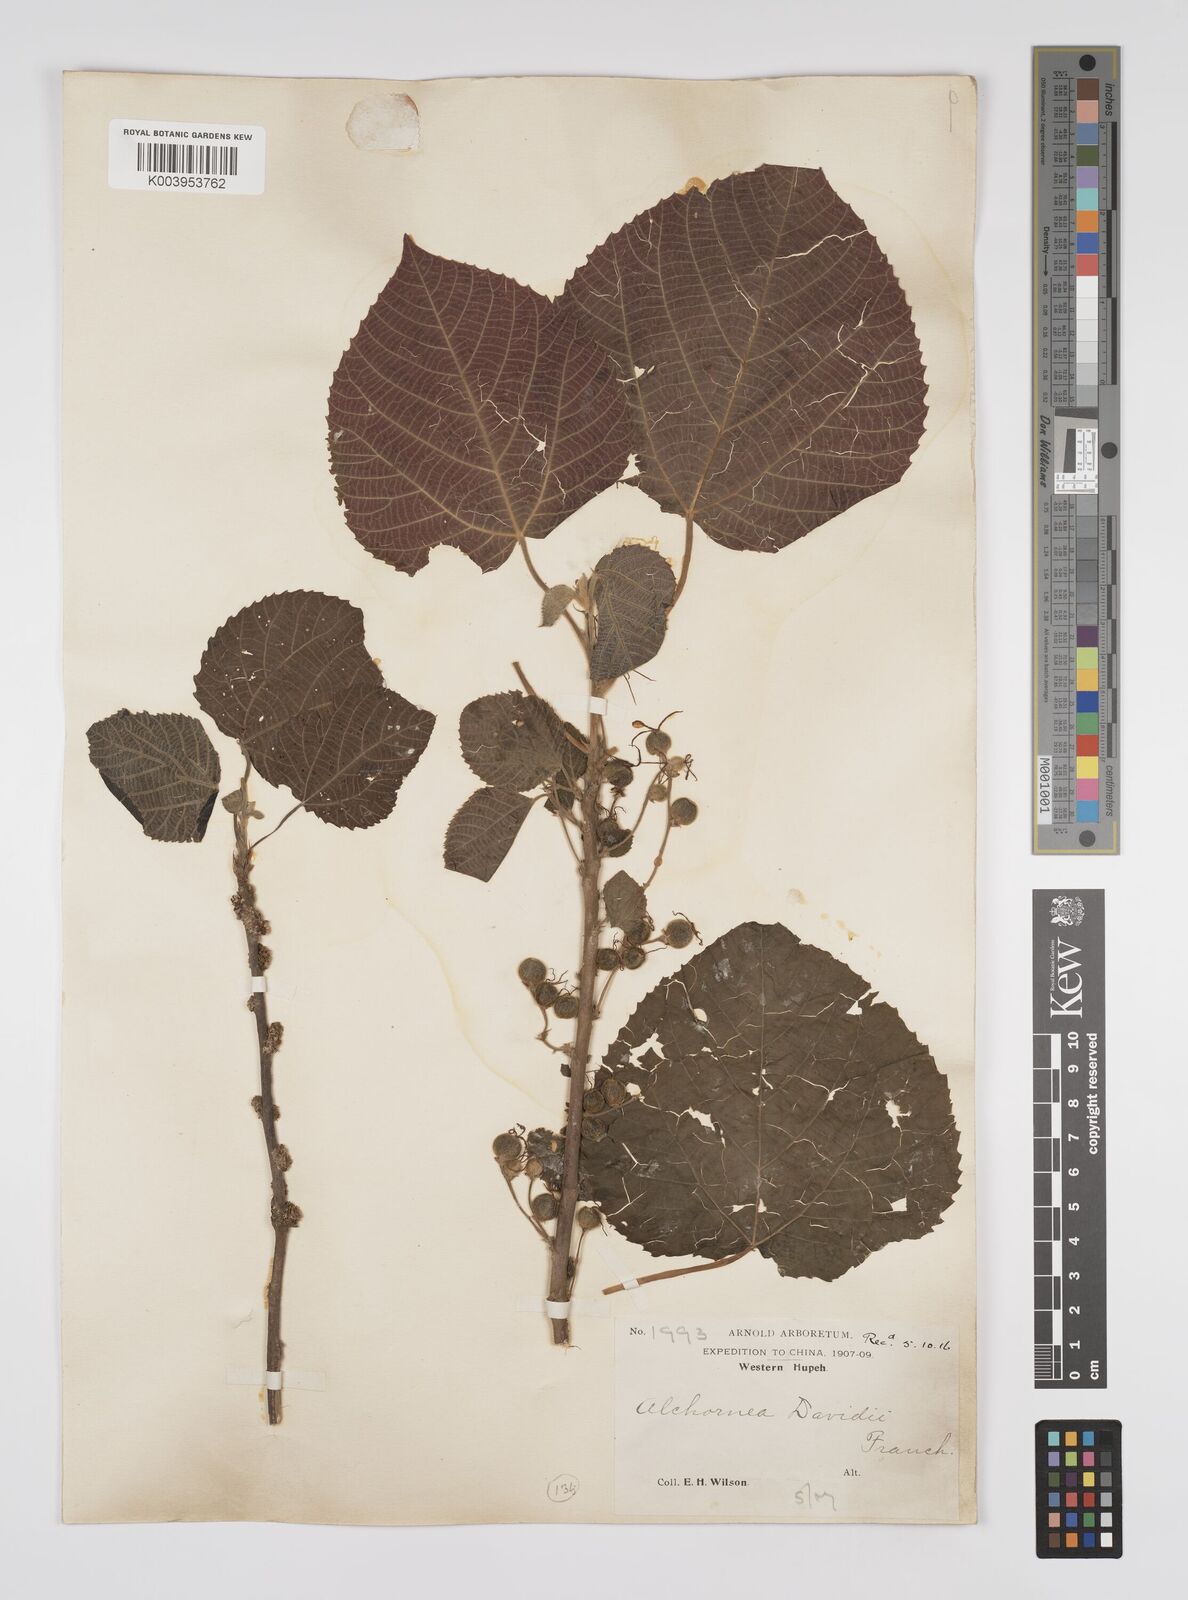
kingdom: Plantae
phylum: Tracheophyta
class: Magnoliopsida
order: Malpighiales
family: Euphorbiaceae
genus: Alchornea
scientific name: Alchornea davidii
